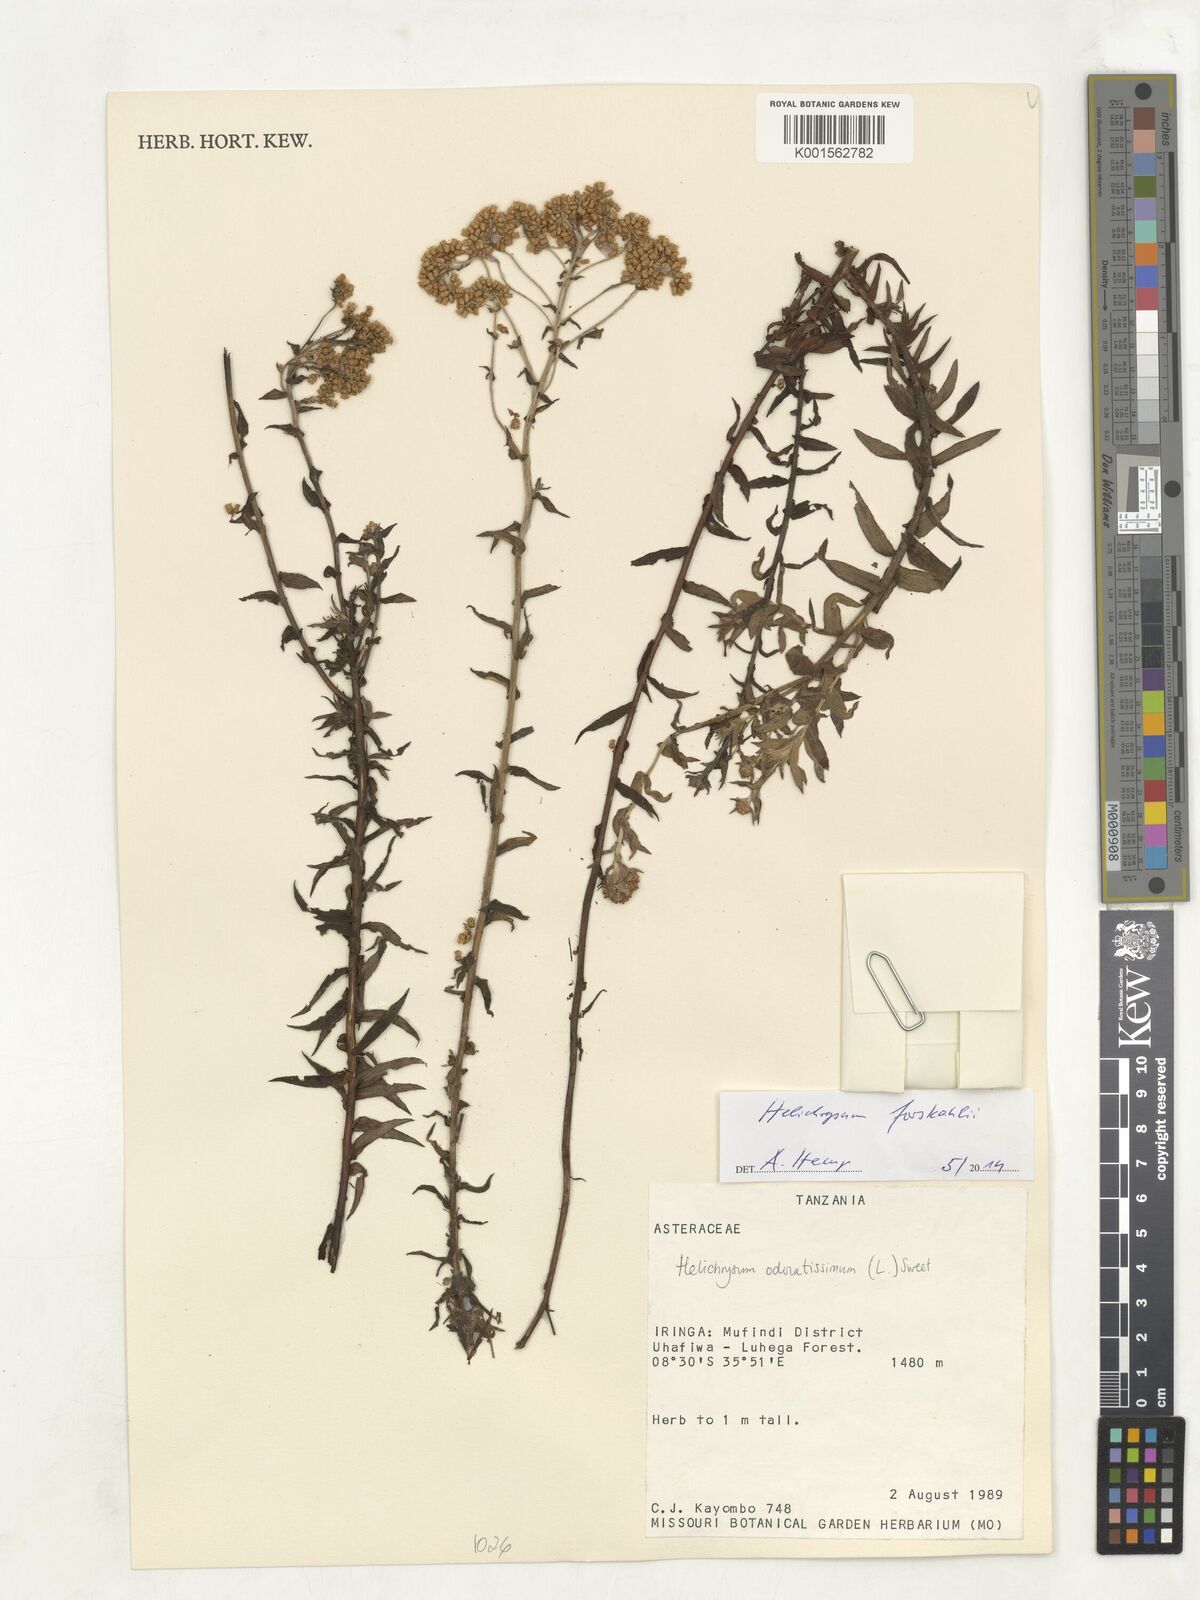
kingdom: Plantae
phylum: Tracheophyta
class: Magnoliopsida
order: Asterales
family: Asteraceae
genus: Helichrysum
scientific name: Helichrysum forskahlii
